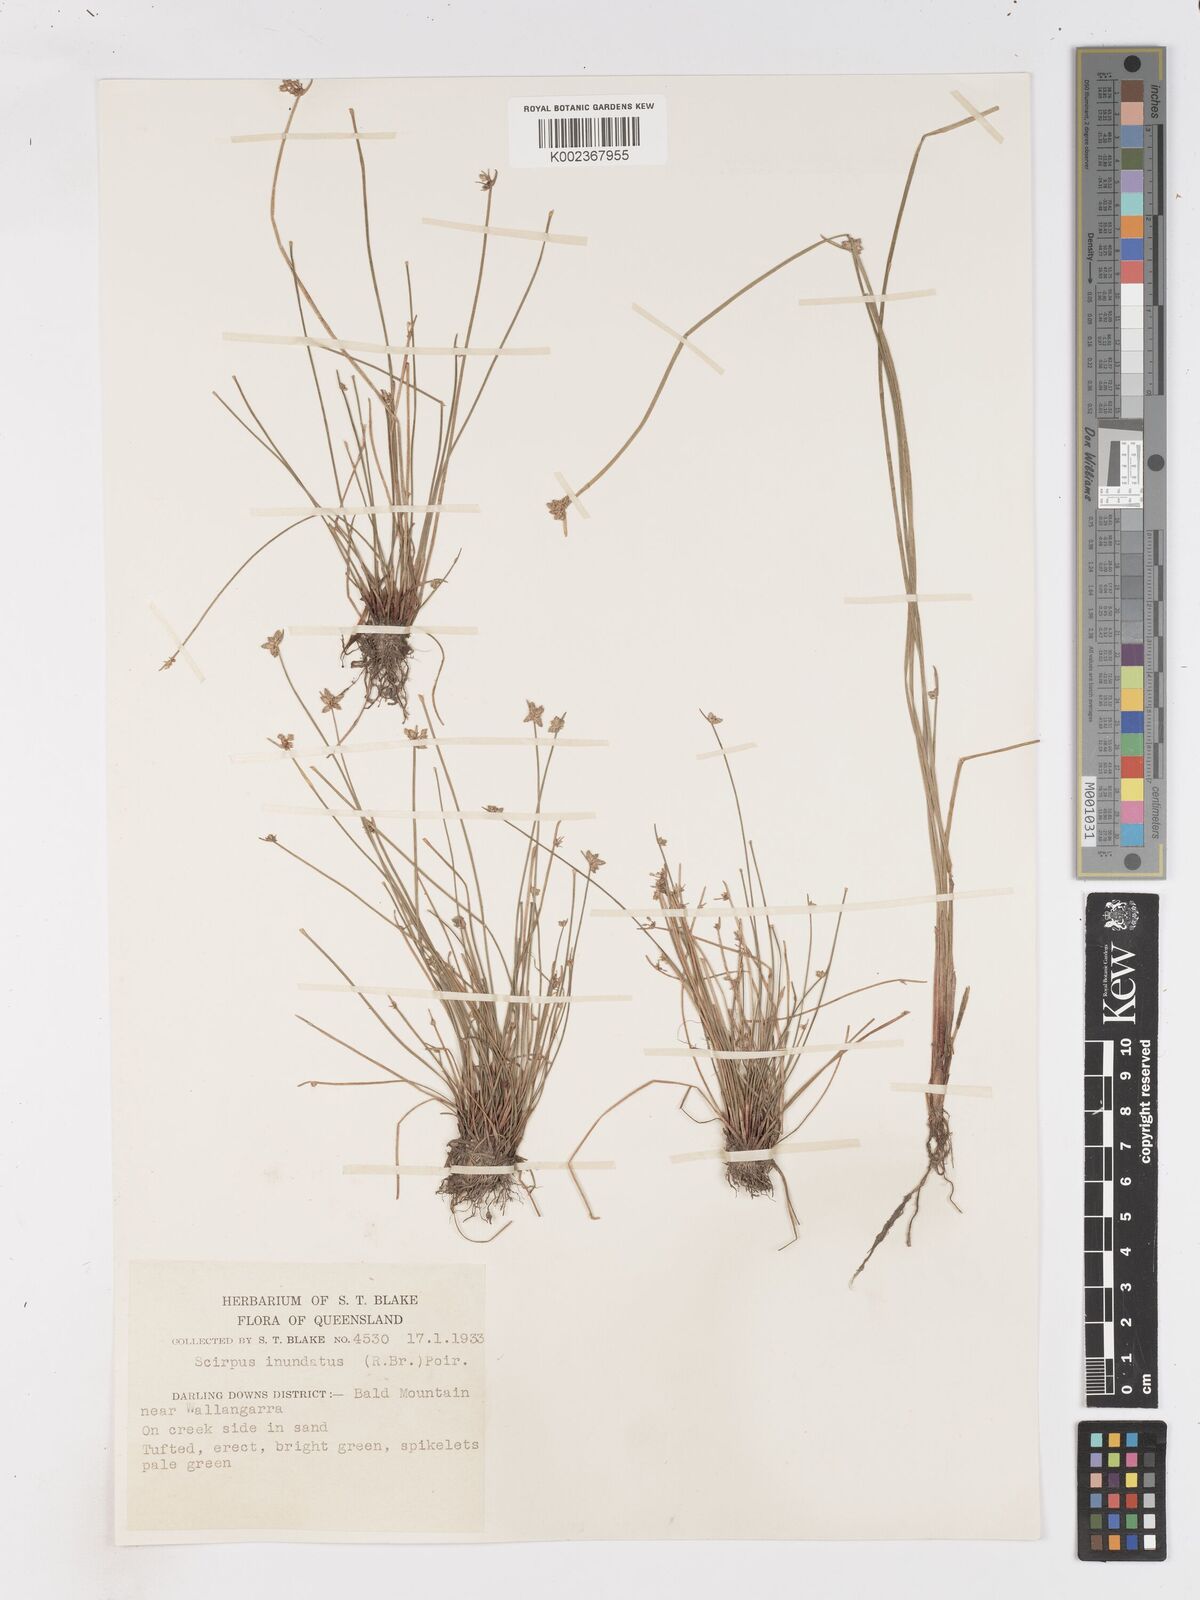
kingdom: Plantae
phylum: Tracheophyta
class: Liliopsida
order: Poales
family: Cyperaceae
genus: Isolepis
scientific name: Isolepis inundata
